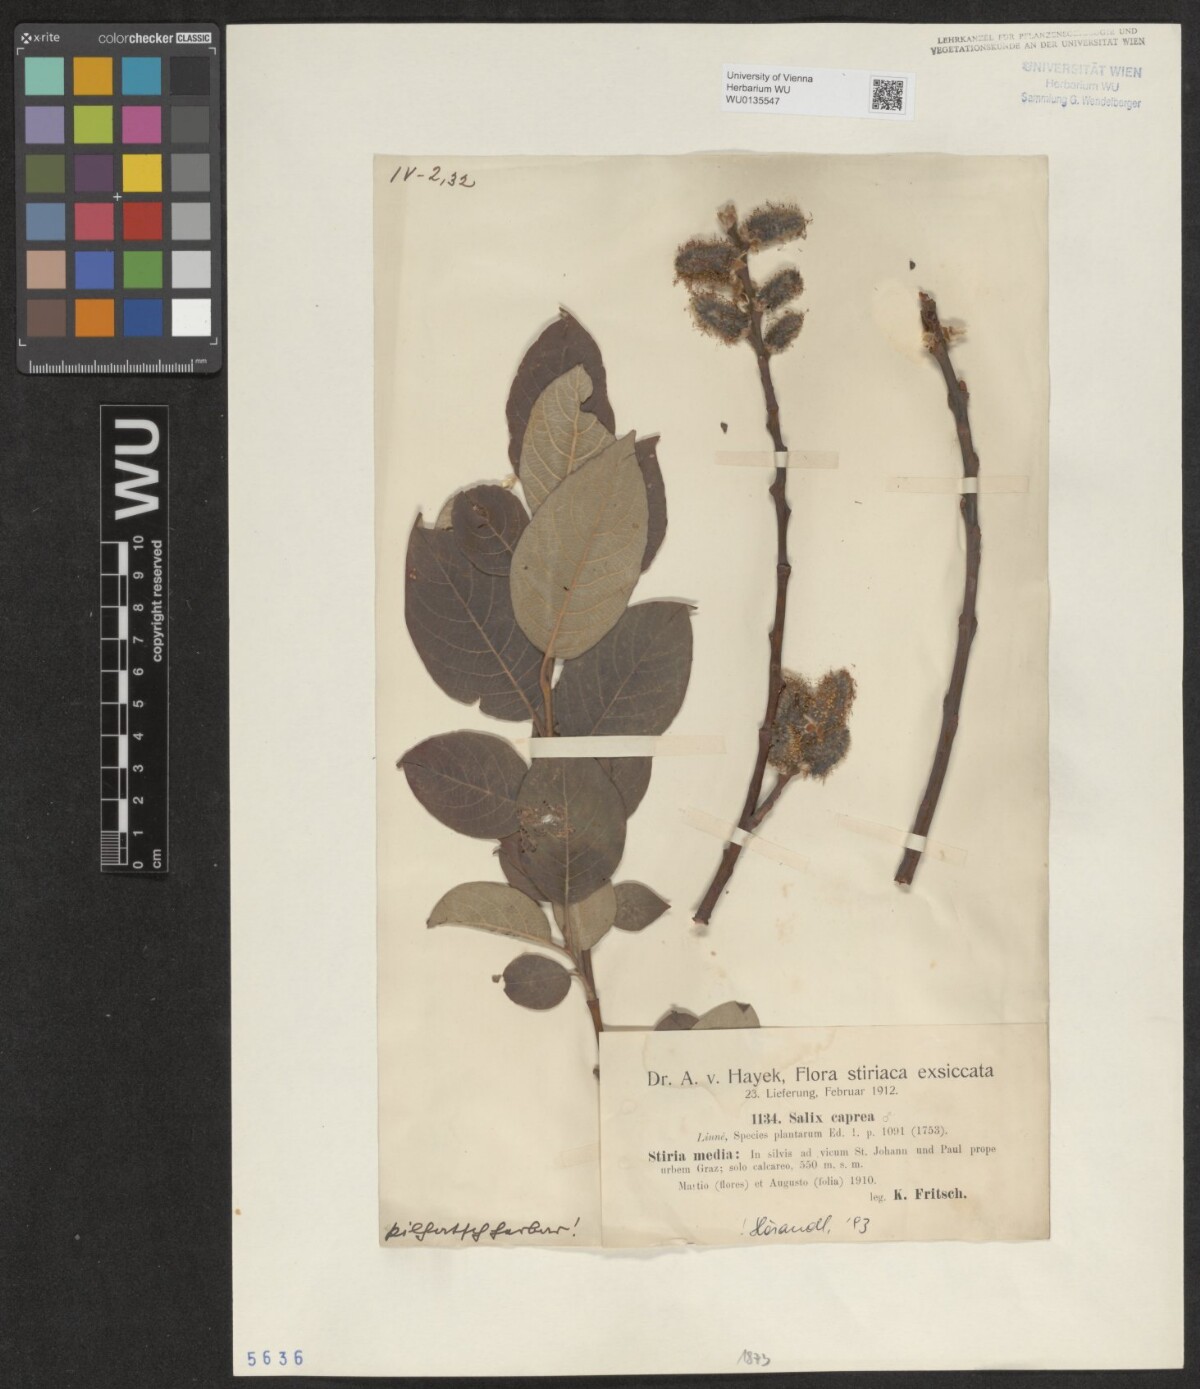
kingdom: Plantae
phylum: Tracheophyta
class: Magnoliopsida
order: Malpighiales
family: Salicaceae
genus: Salix
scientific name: Salix caprea
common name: Goat willow
